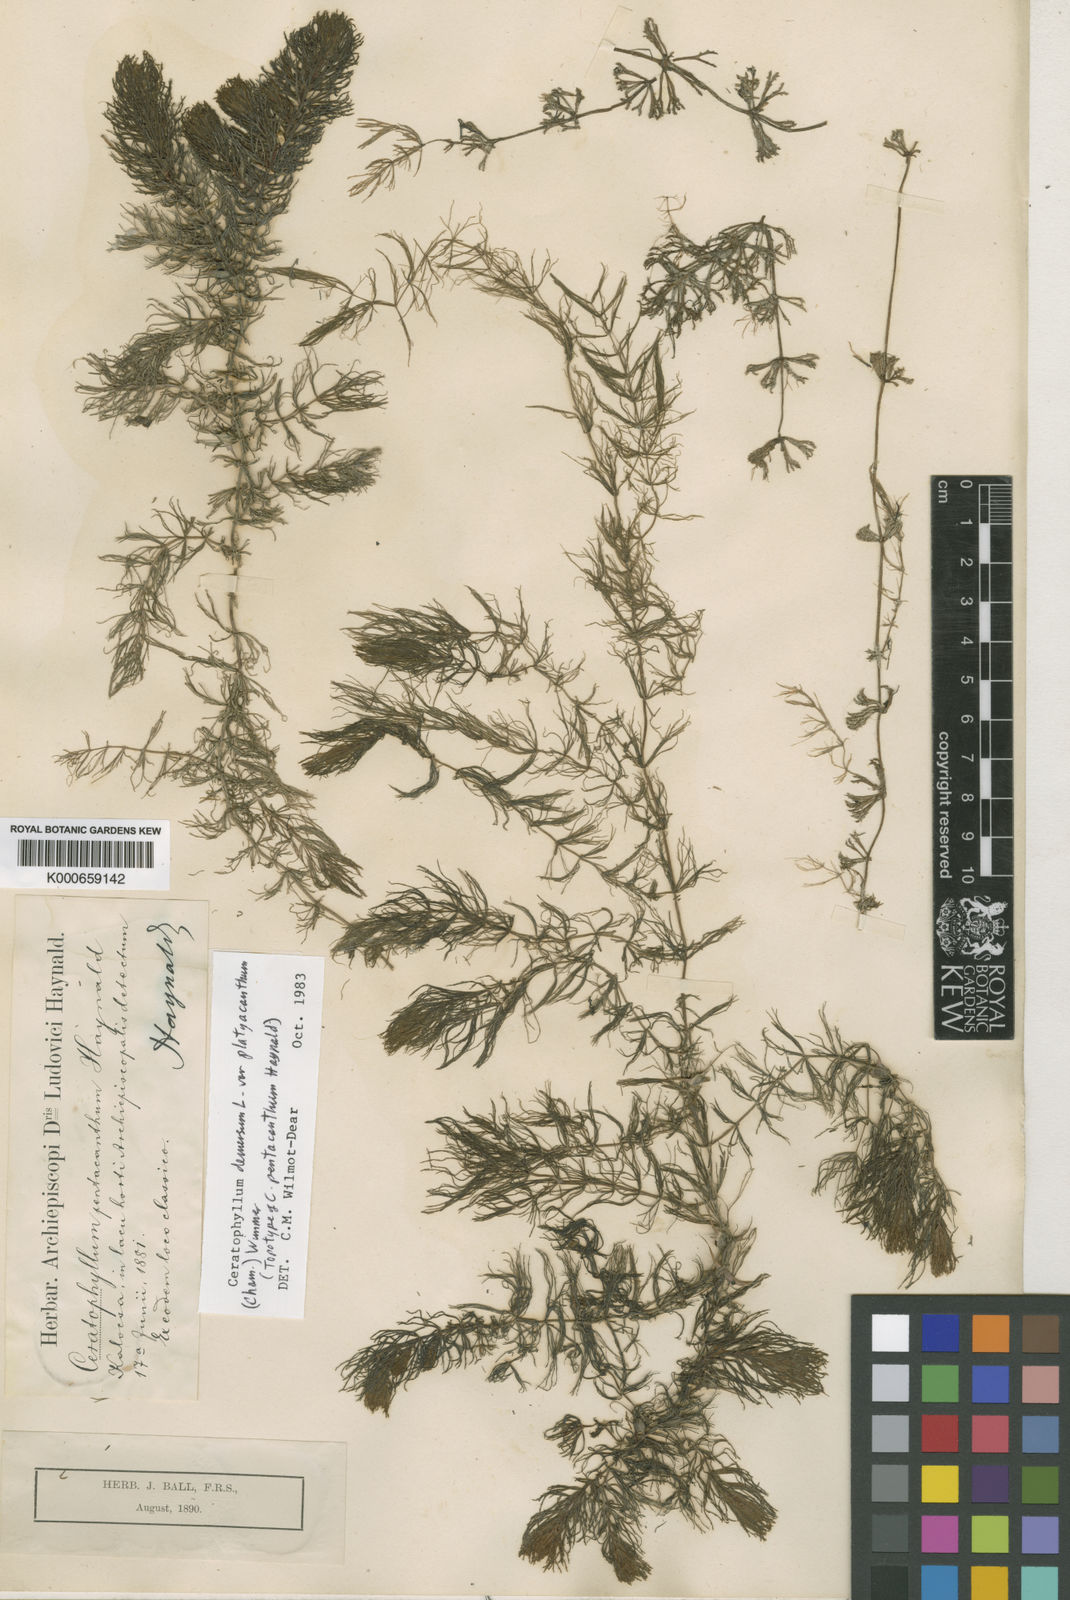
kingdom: Plantae
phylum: Tracheophyta
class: Magnoliopsida
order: Ceratophyllales
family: Ceratophyllaceae
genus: Ceratophyllum
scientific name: Ceratophyllum demersum
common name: Rigid hornwort
